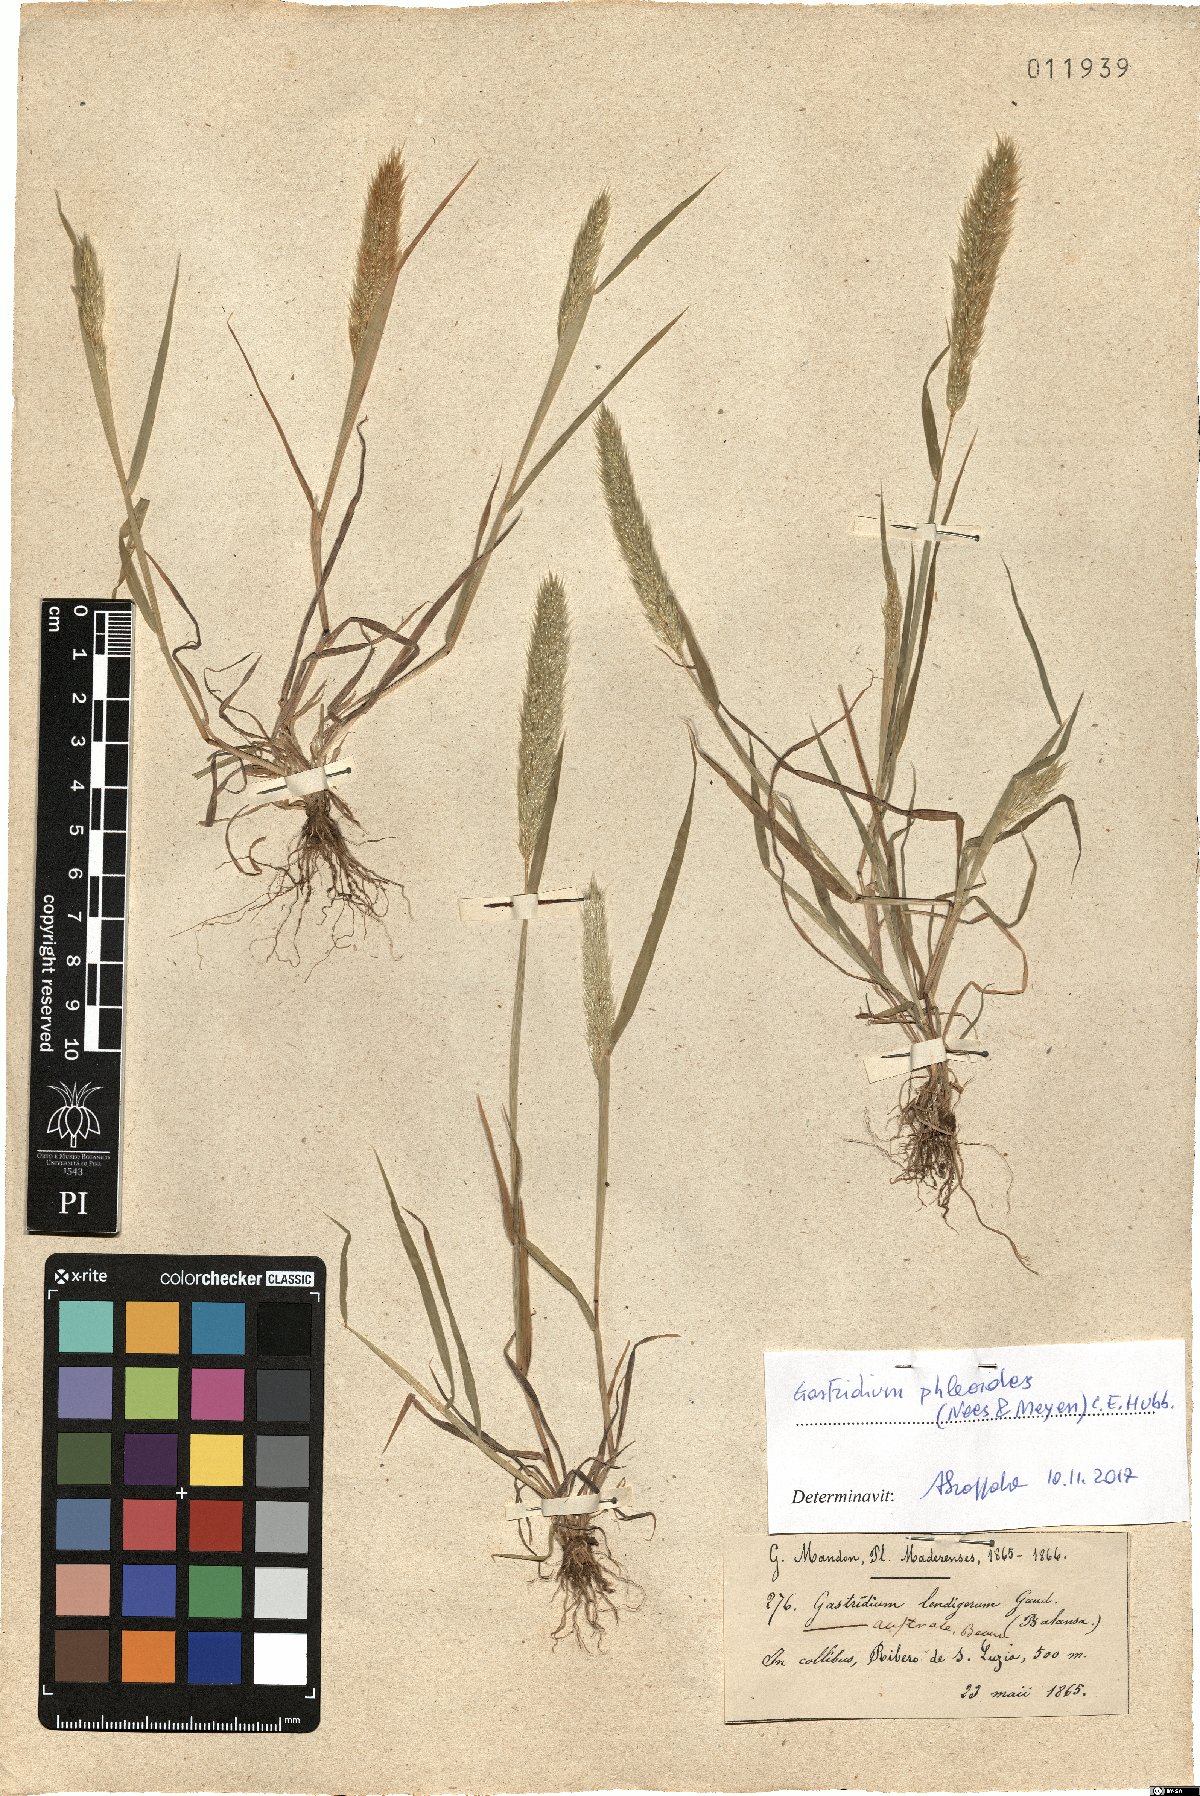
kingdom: Plantae
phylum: Tracheophyta
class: Liliopsida
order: Poales
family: Poaceae
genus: Gastridium
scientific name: Gastridium phleoides
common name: Nit grass
